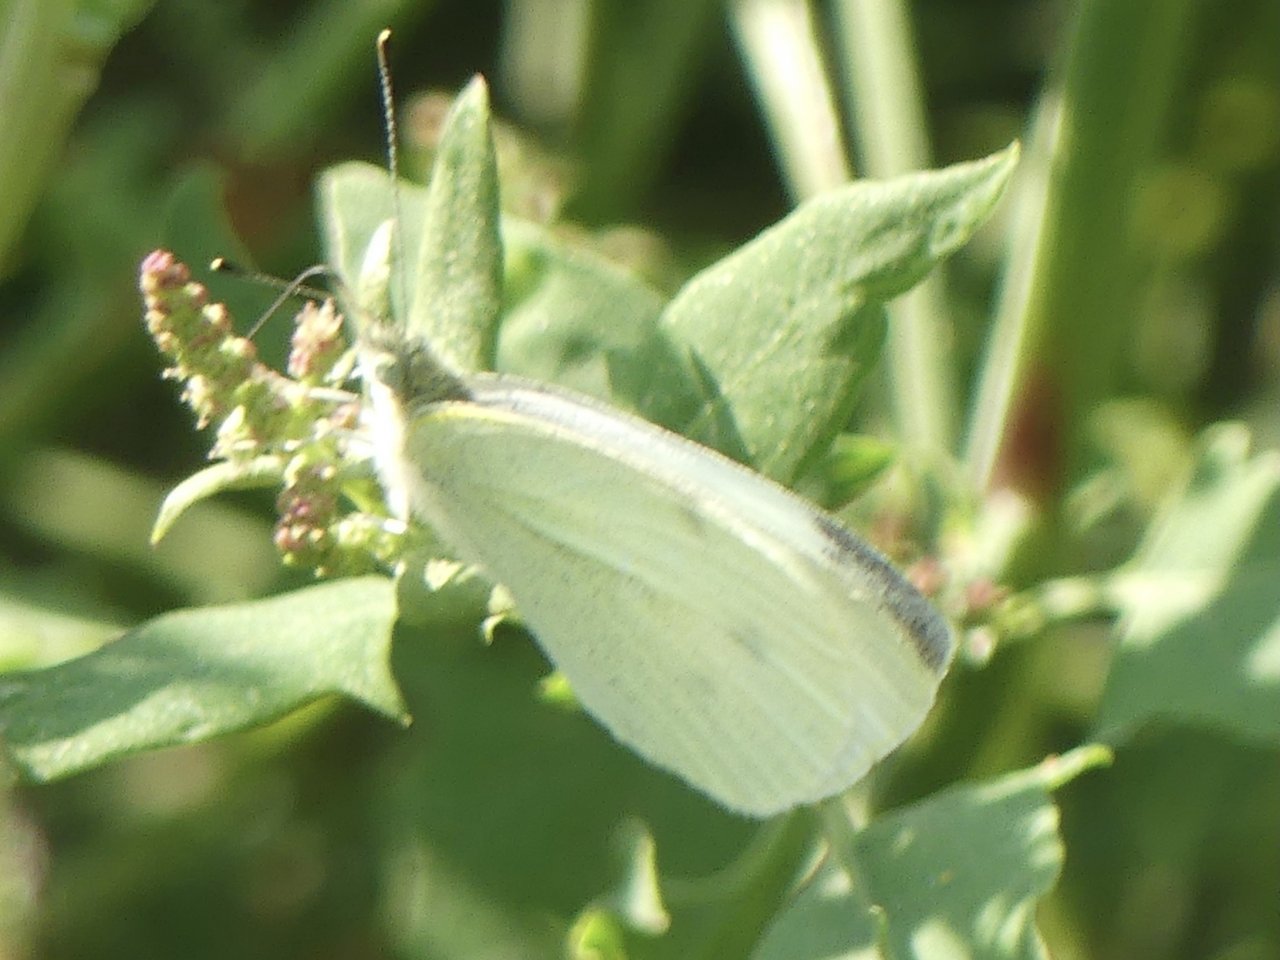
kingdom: Animalia
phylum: Arthropoda
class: Insecta
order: Lepidoptera
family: Pieridae
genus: Pieris
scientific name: Pieris rapae
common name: Cabbage White
